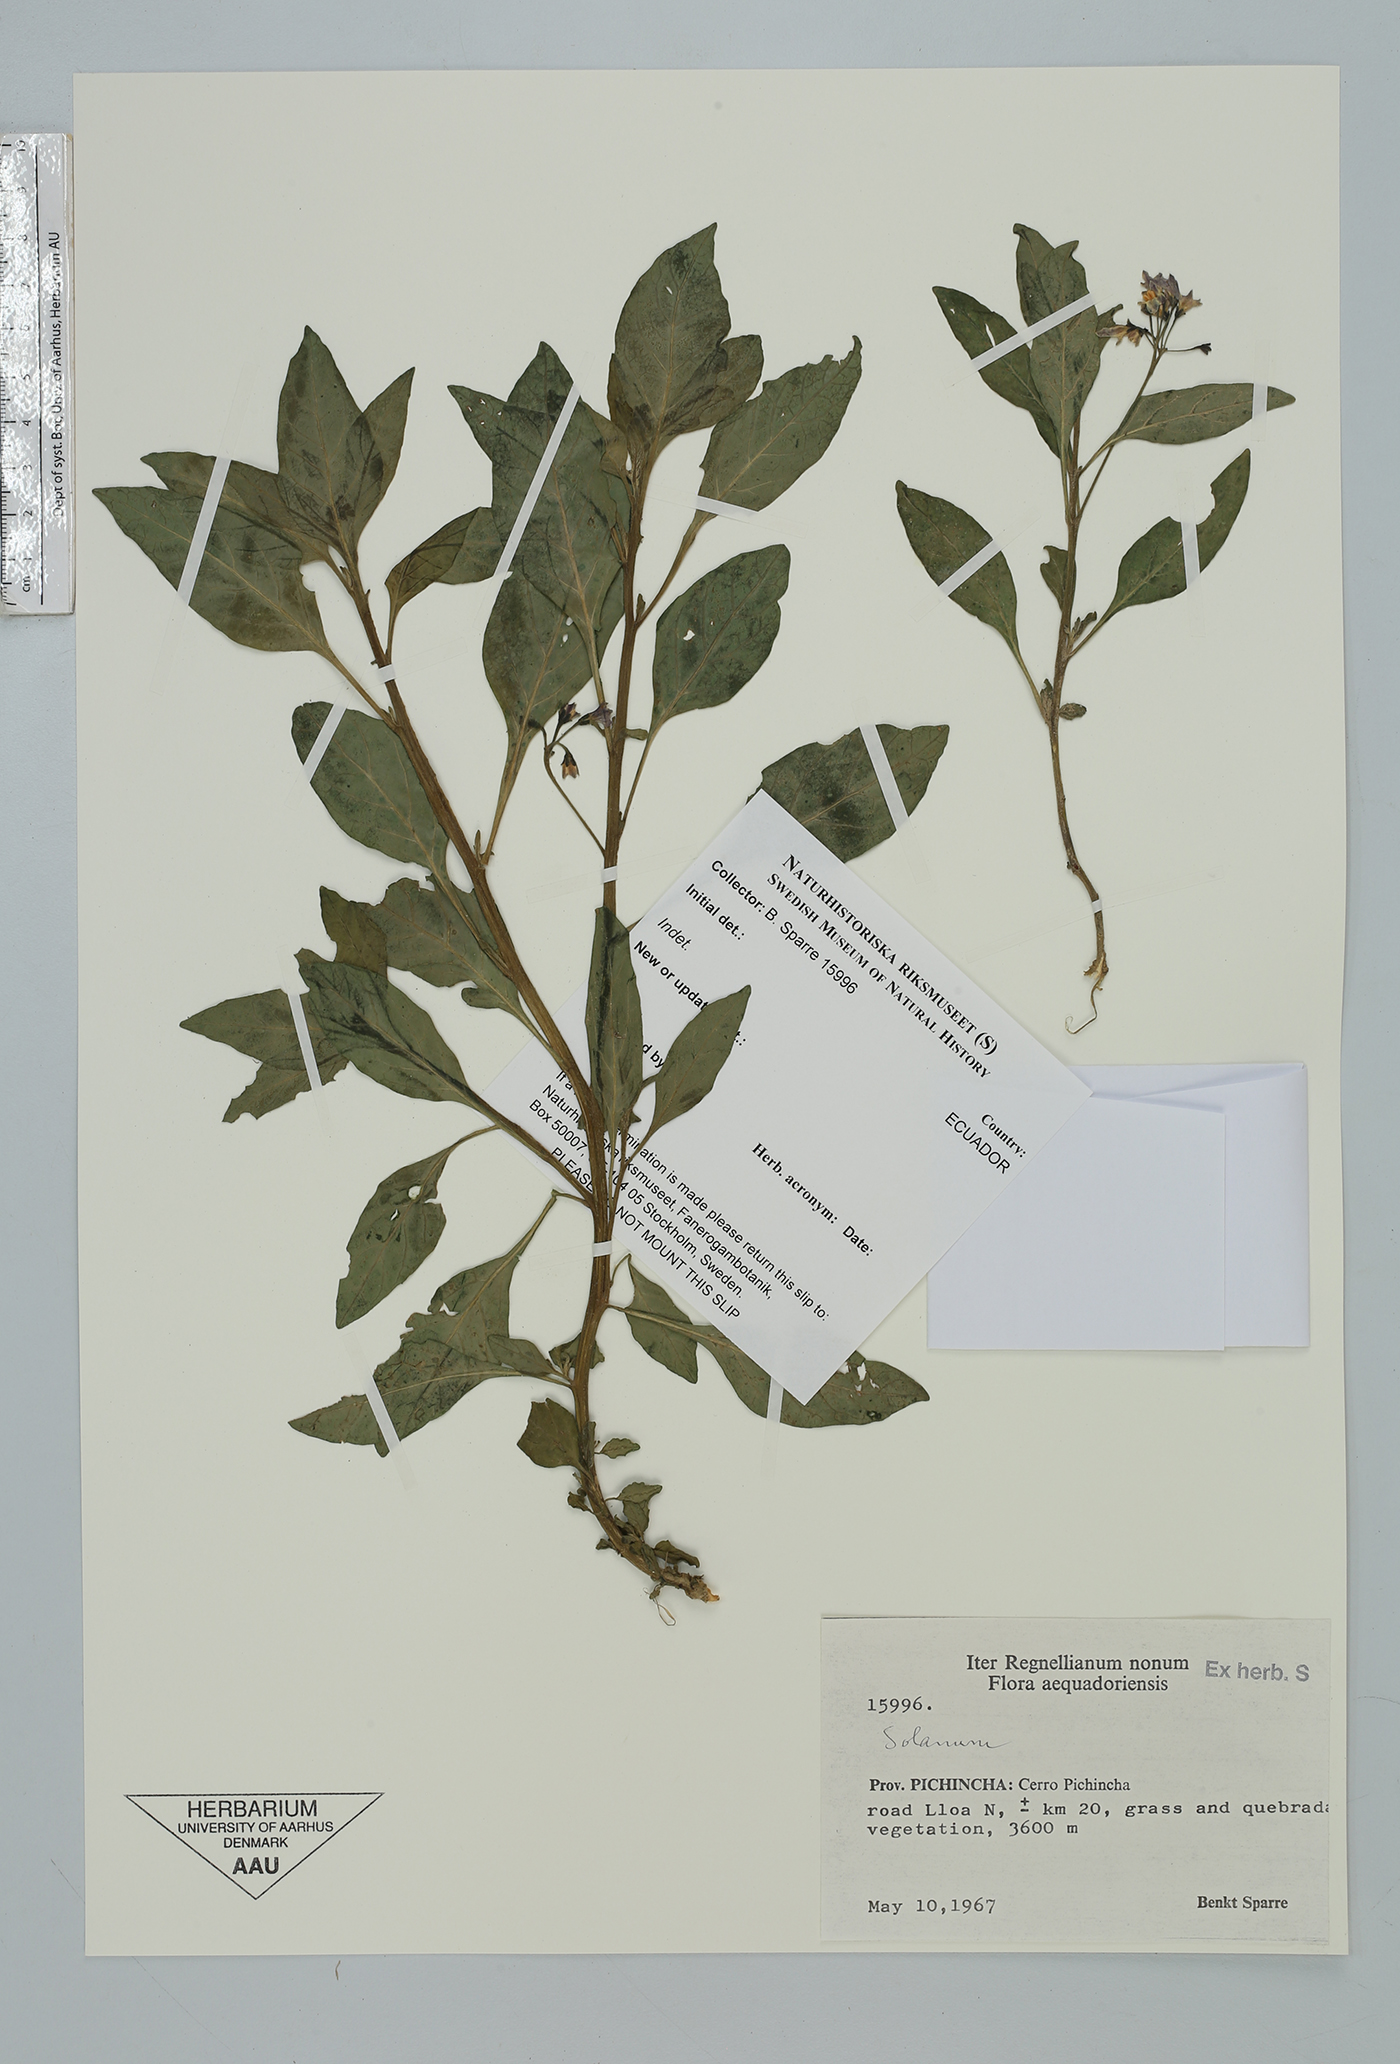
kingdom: Plantae
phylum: Tracheophyta
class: Magnoliopsida
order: Solanales
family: Solanaceae
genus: Solanum
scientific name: Solanum interandinum
